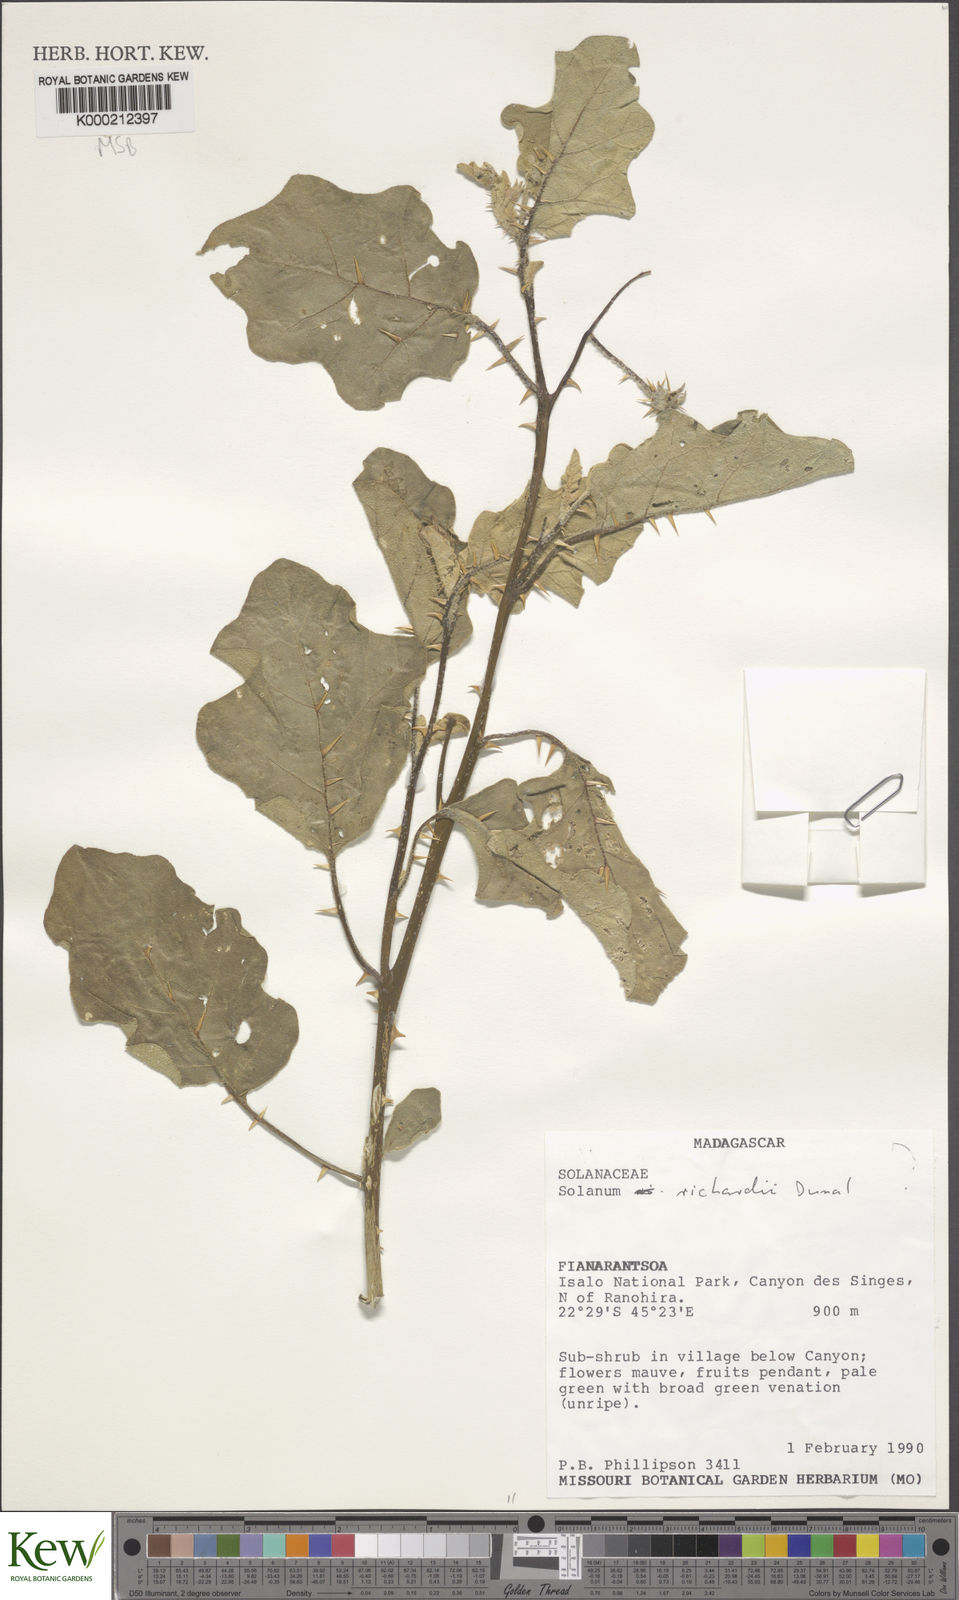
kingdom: Plantae
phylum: Tracheophyta
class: Magnoliopsida
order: Solanales
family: Solanaceae
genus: Solanum
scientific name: Solanum richardii
